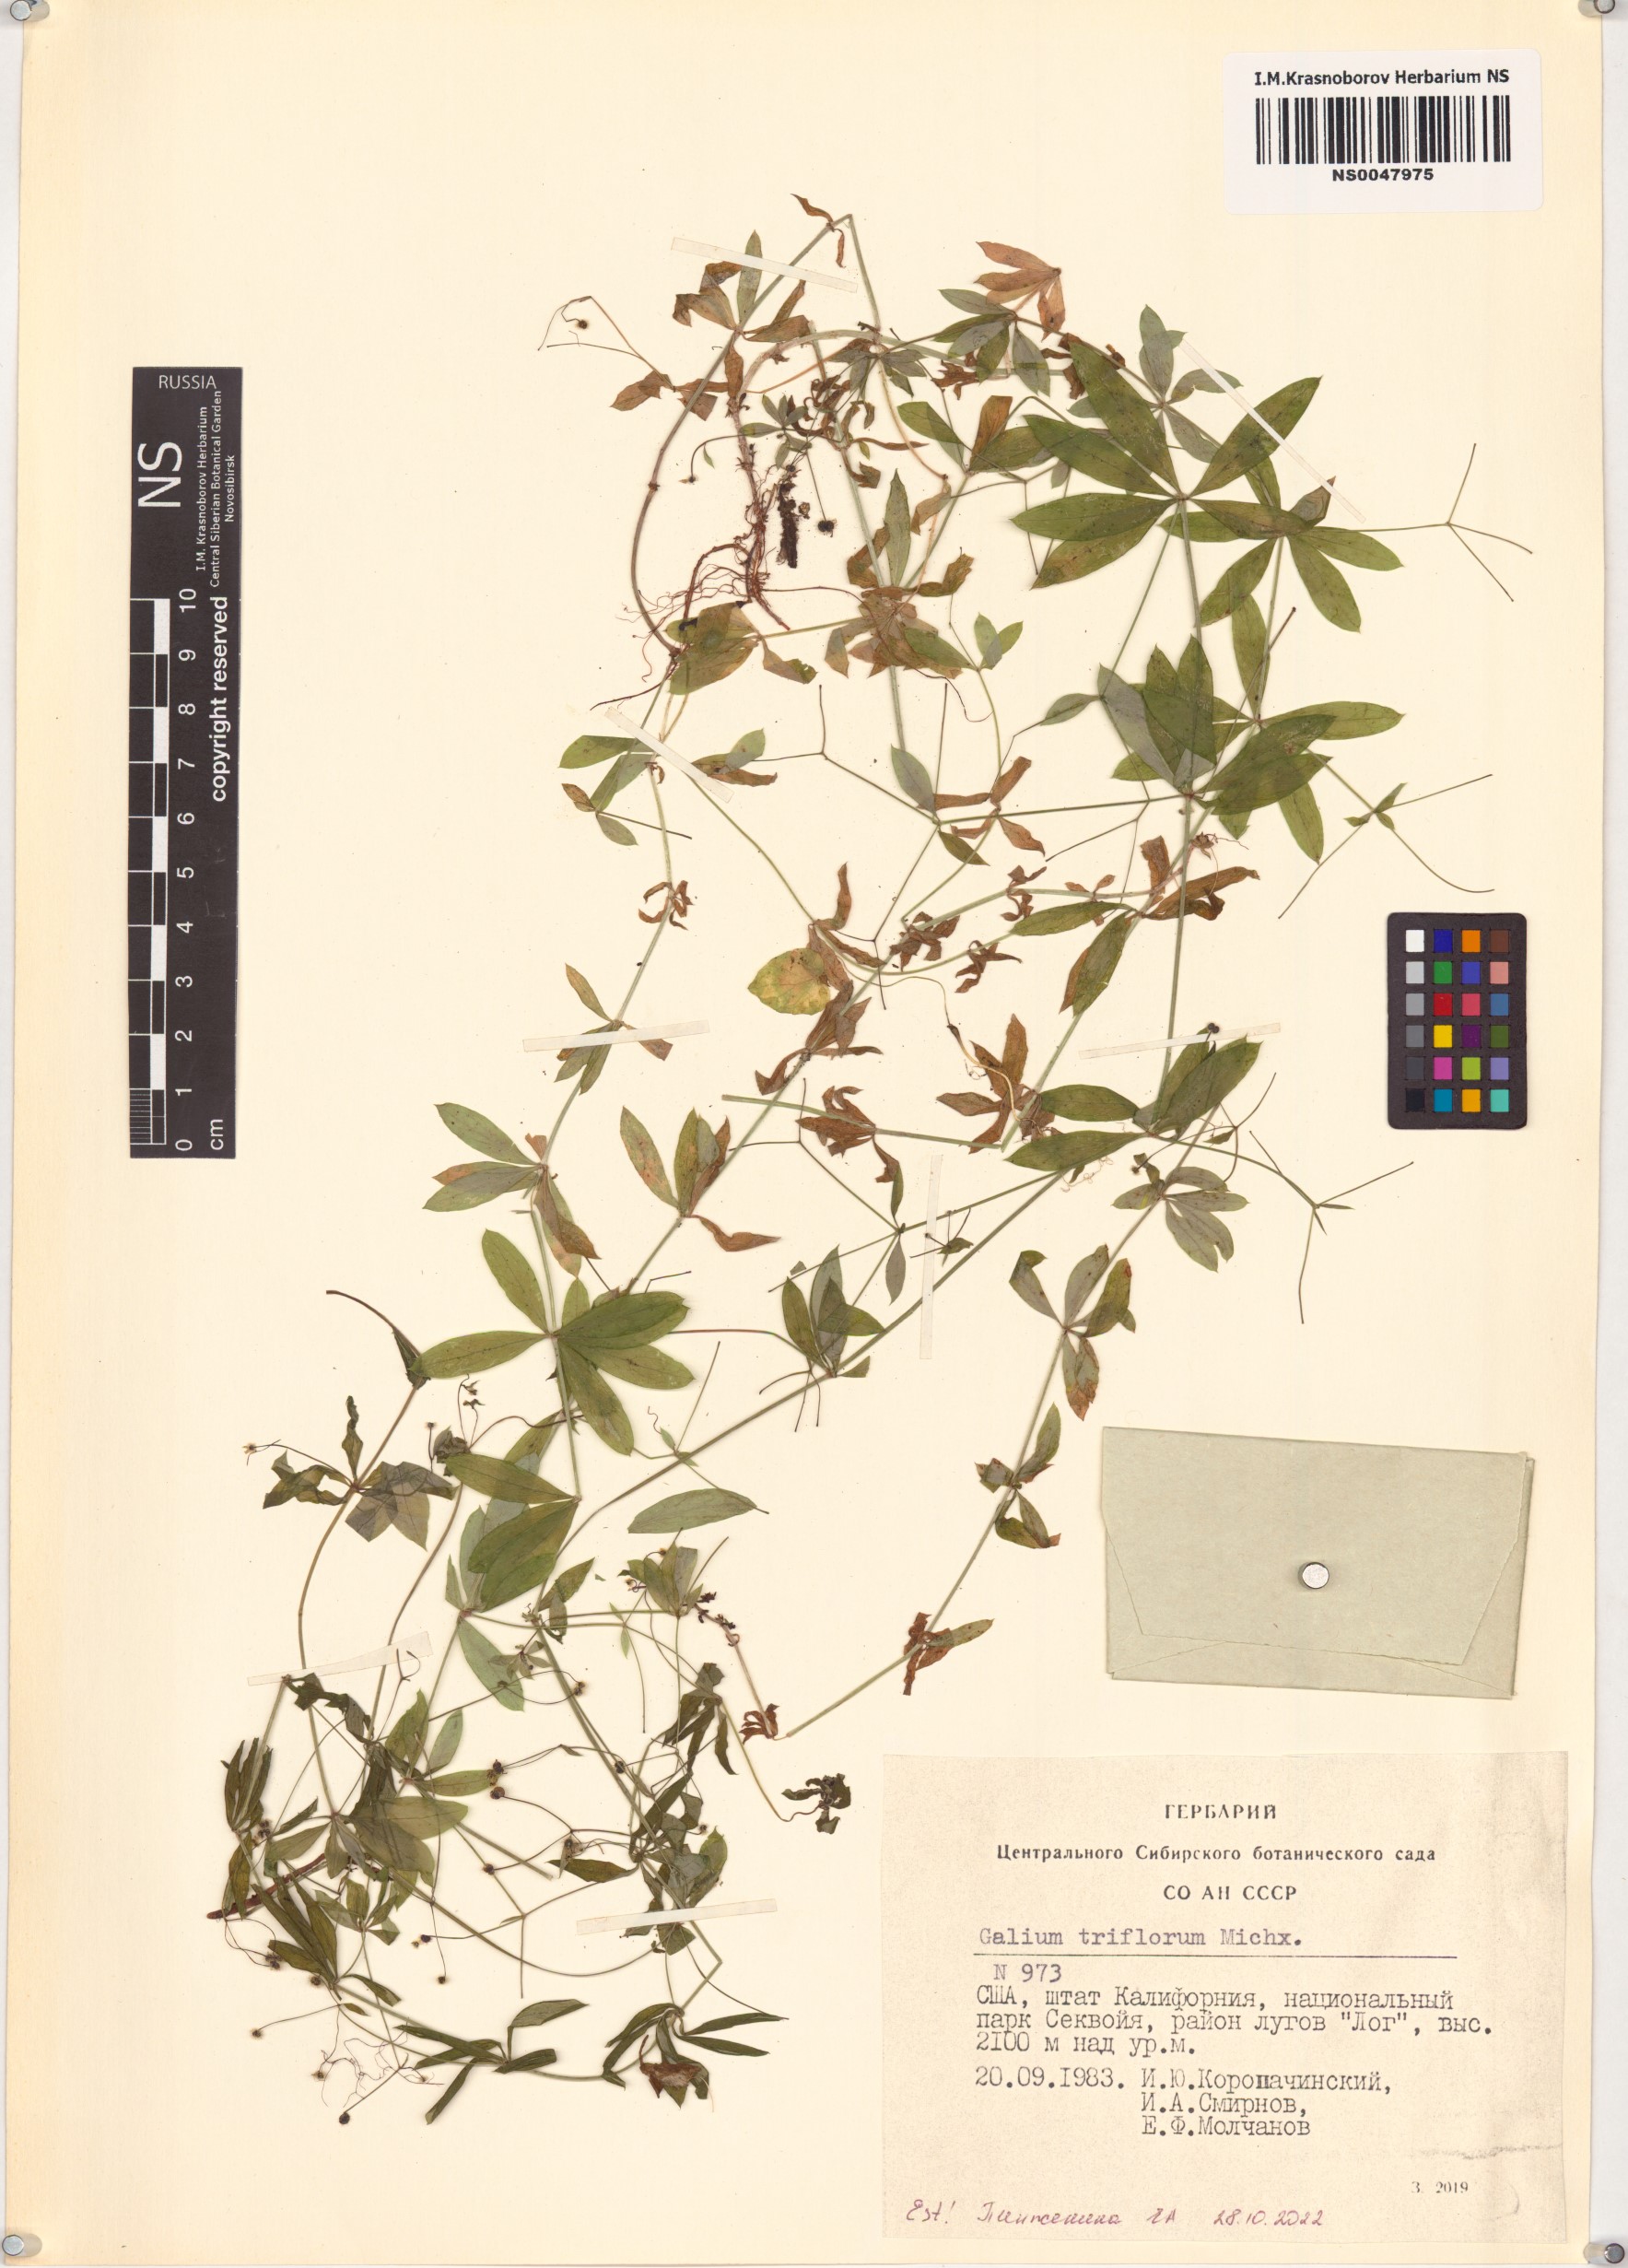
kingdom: Plantae
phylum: Tracheophyta
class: Magnoliopsida
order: Gentianales
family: Rubiaceae
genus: Galium
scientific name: Galium triflorum
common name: Fragrant bedstraw
